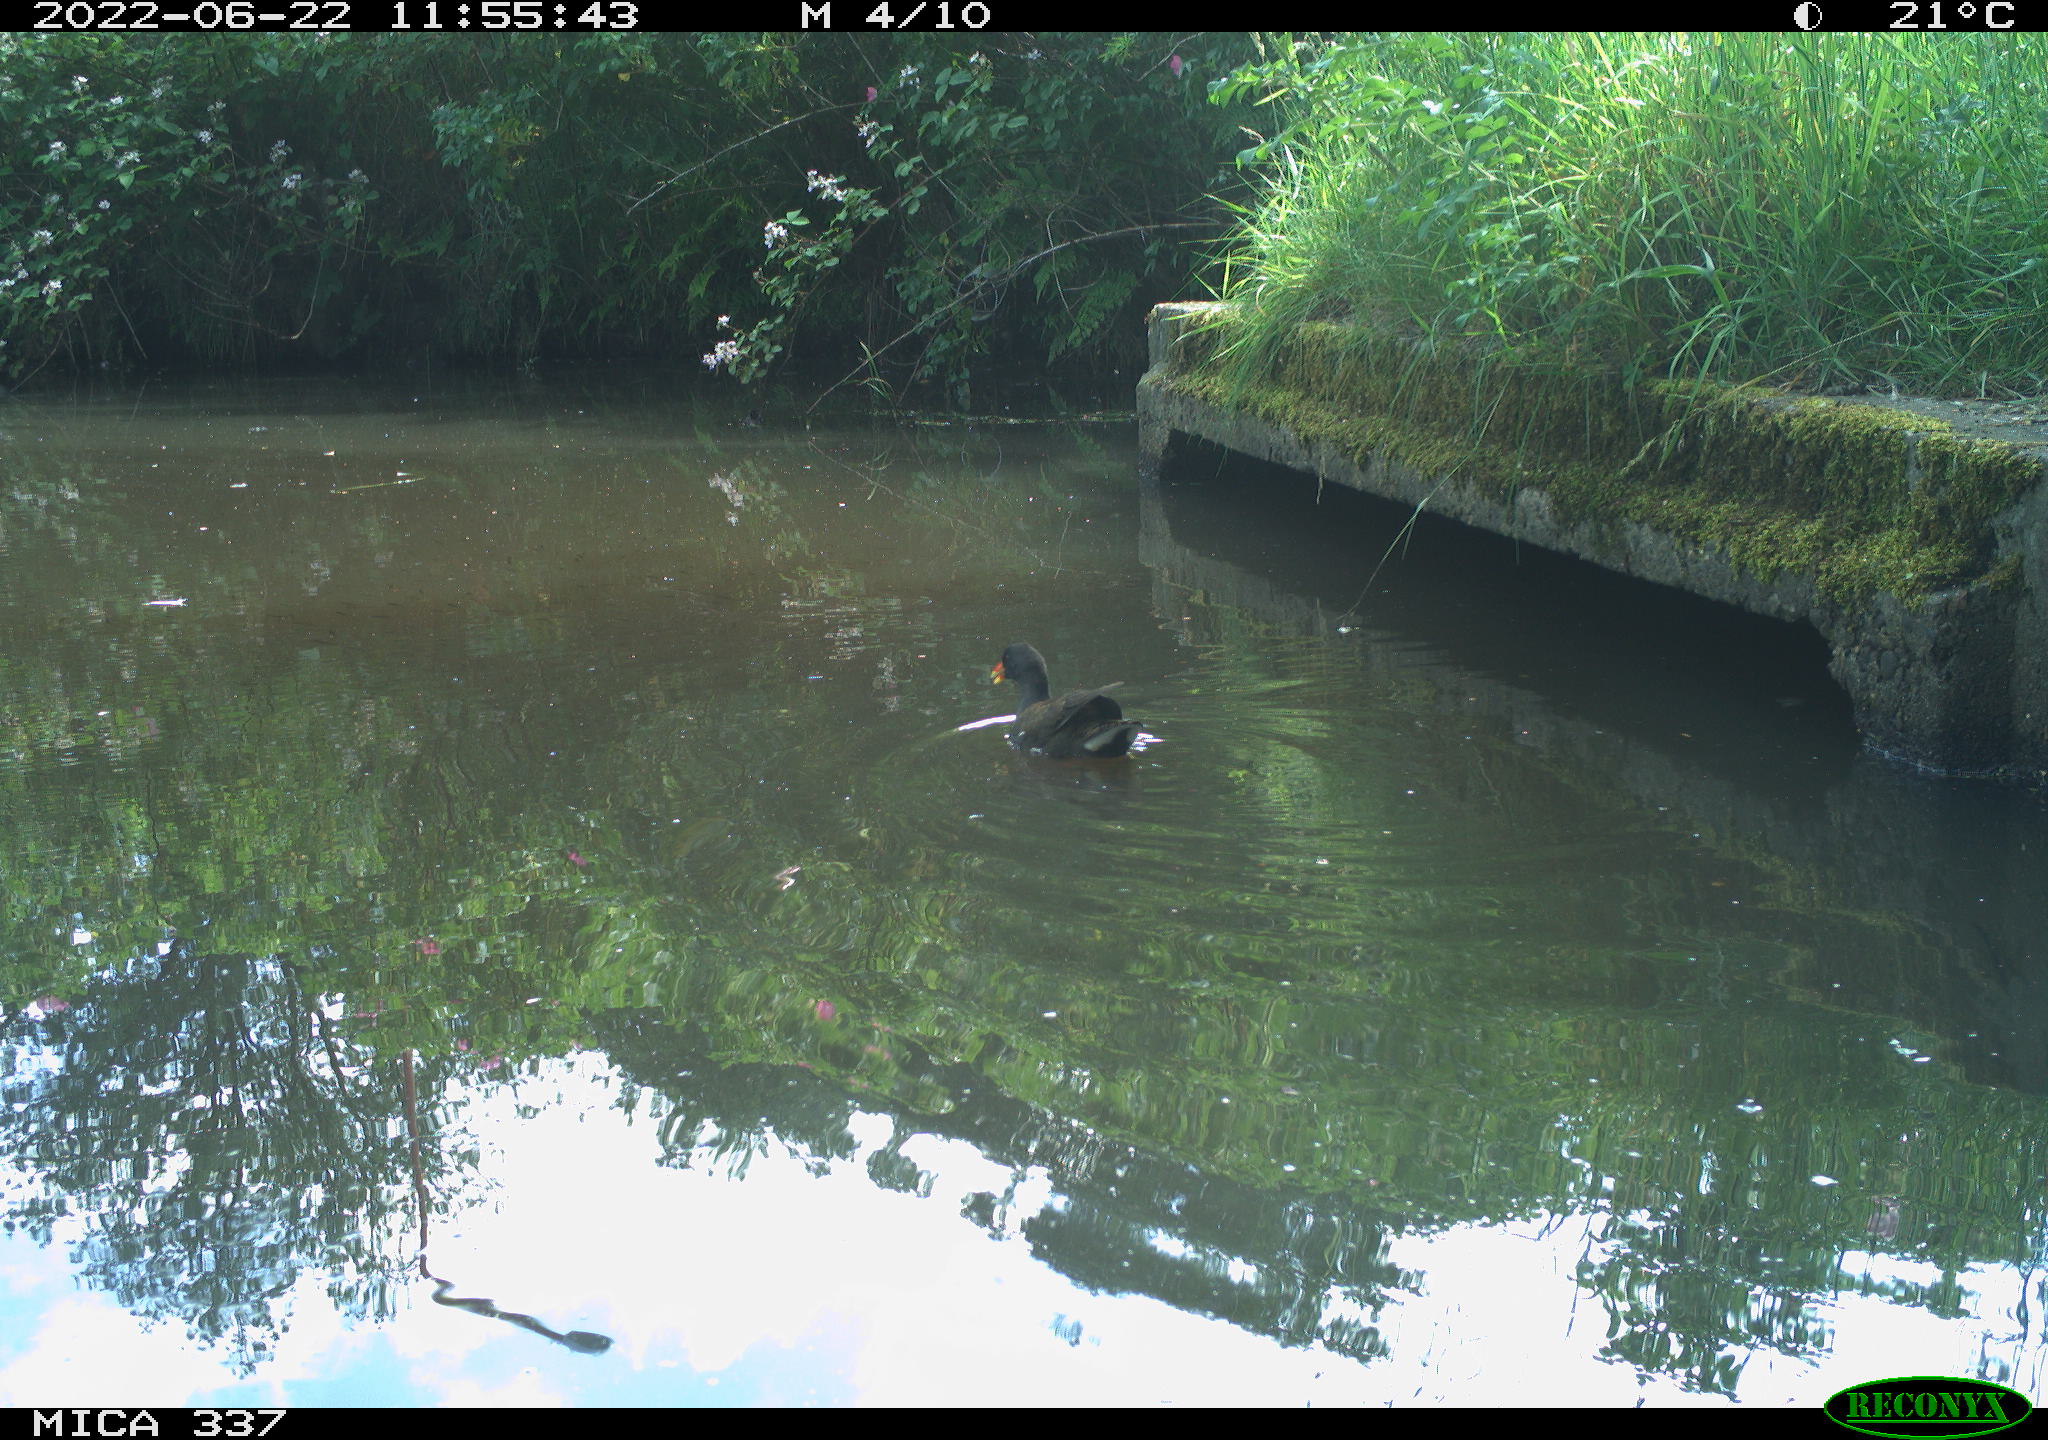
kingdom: Animalia
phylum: Chordata
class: Aves
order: Gruiformes
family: Rallidae
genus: Gallinula
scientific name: Gallinula chloropus
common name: Common moorhen
